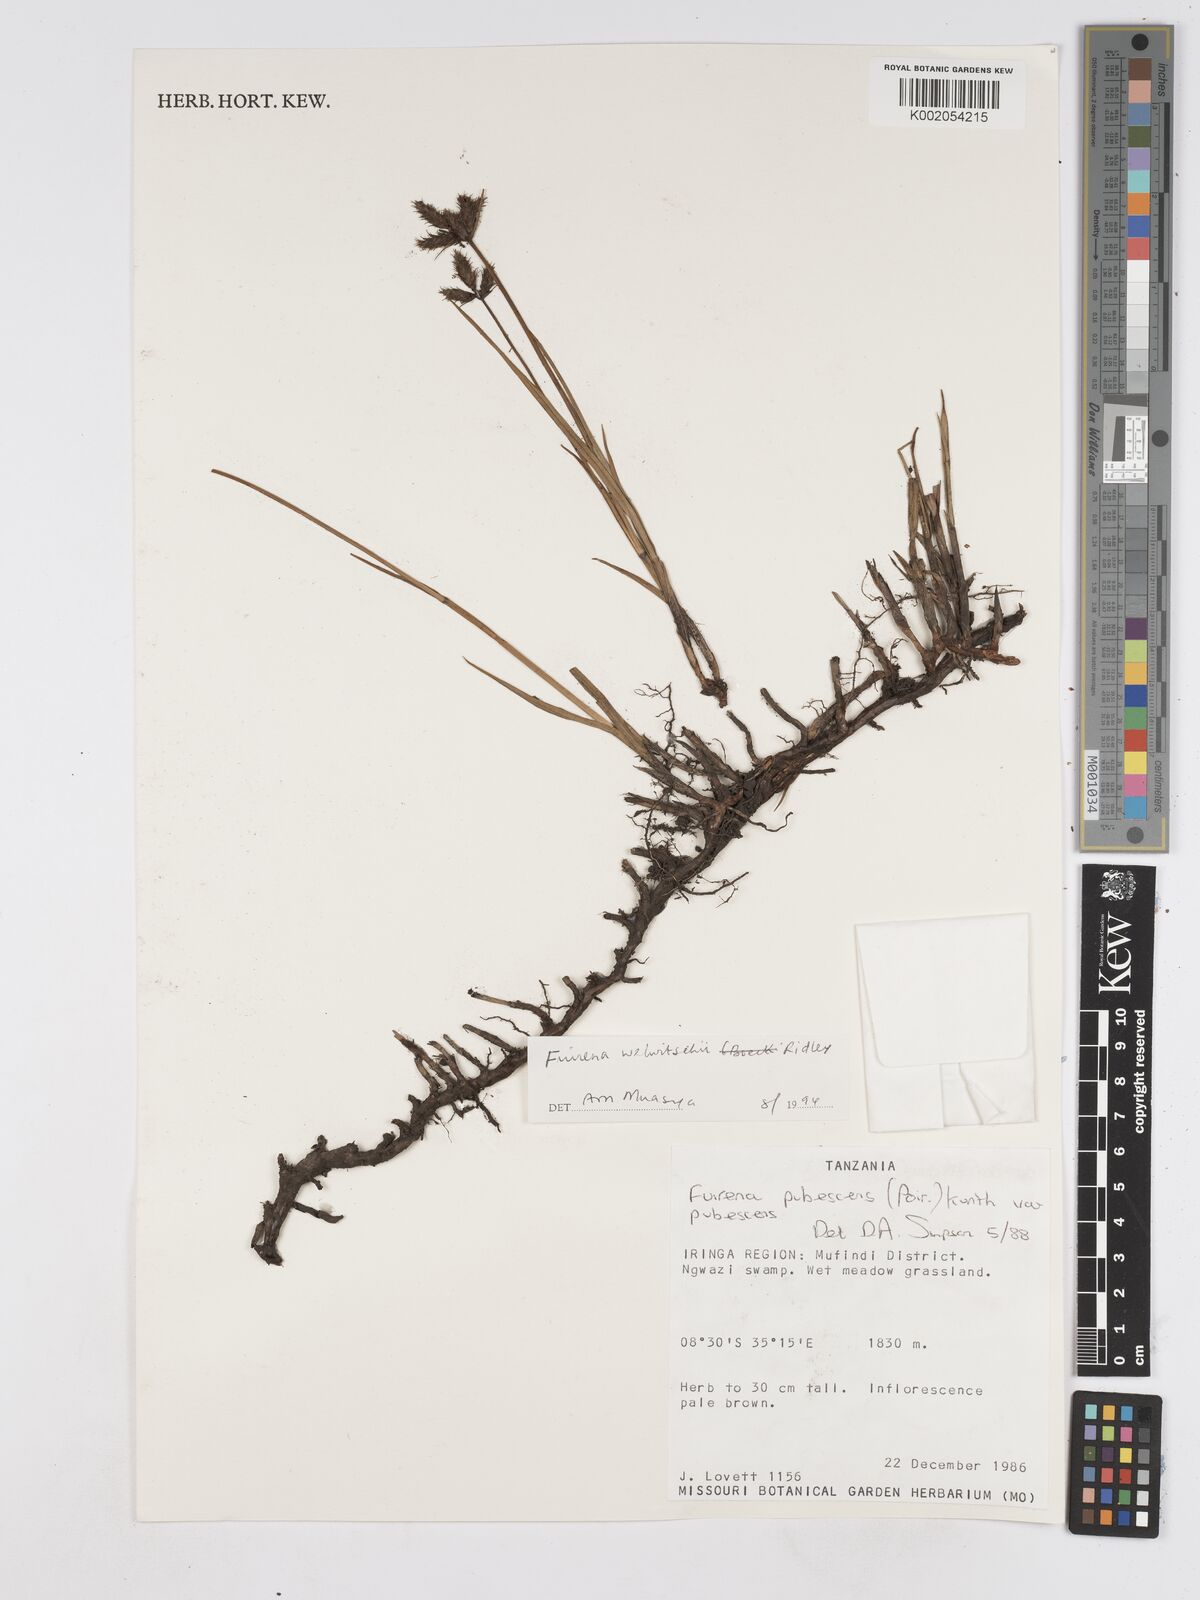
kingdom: Plantae
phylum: Tracheophyta
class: Liliopsida
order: Poales
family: Cyperaceae
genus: Fuirena
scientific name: Fuirena welwitschii
